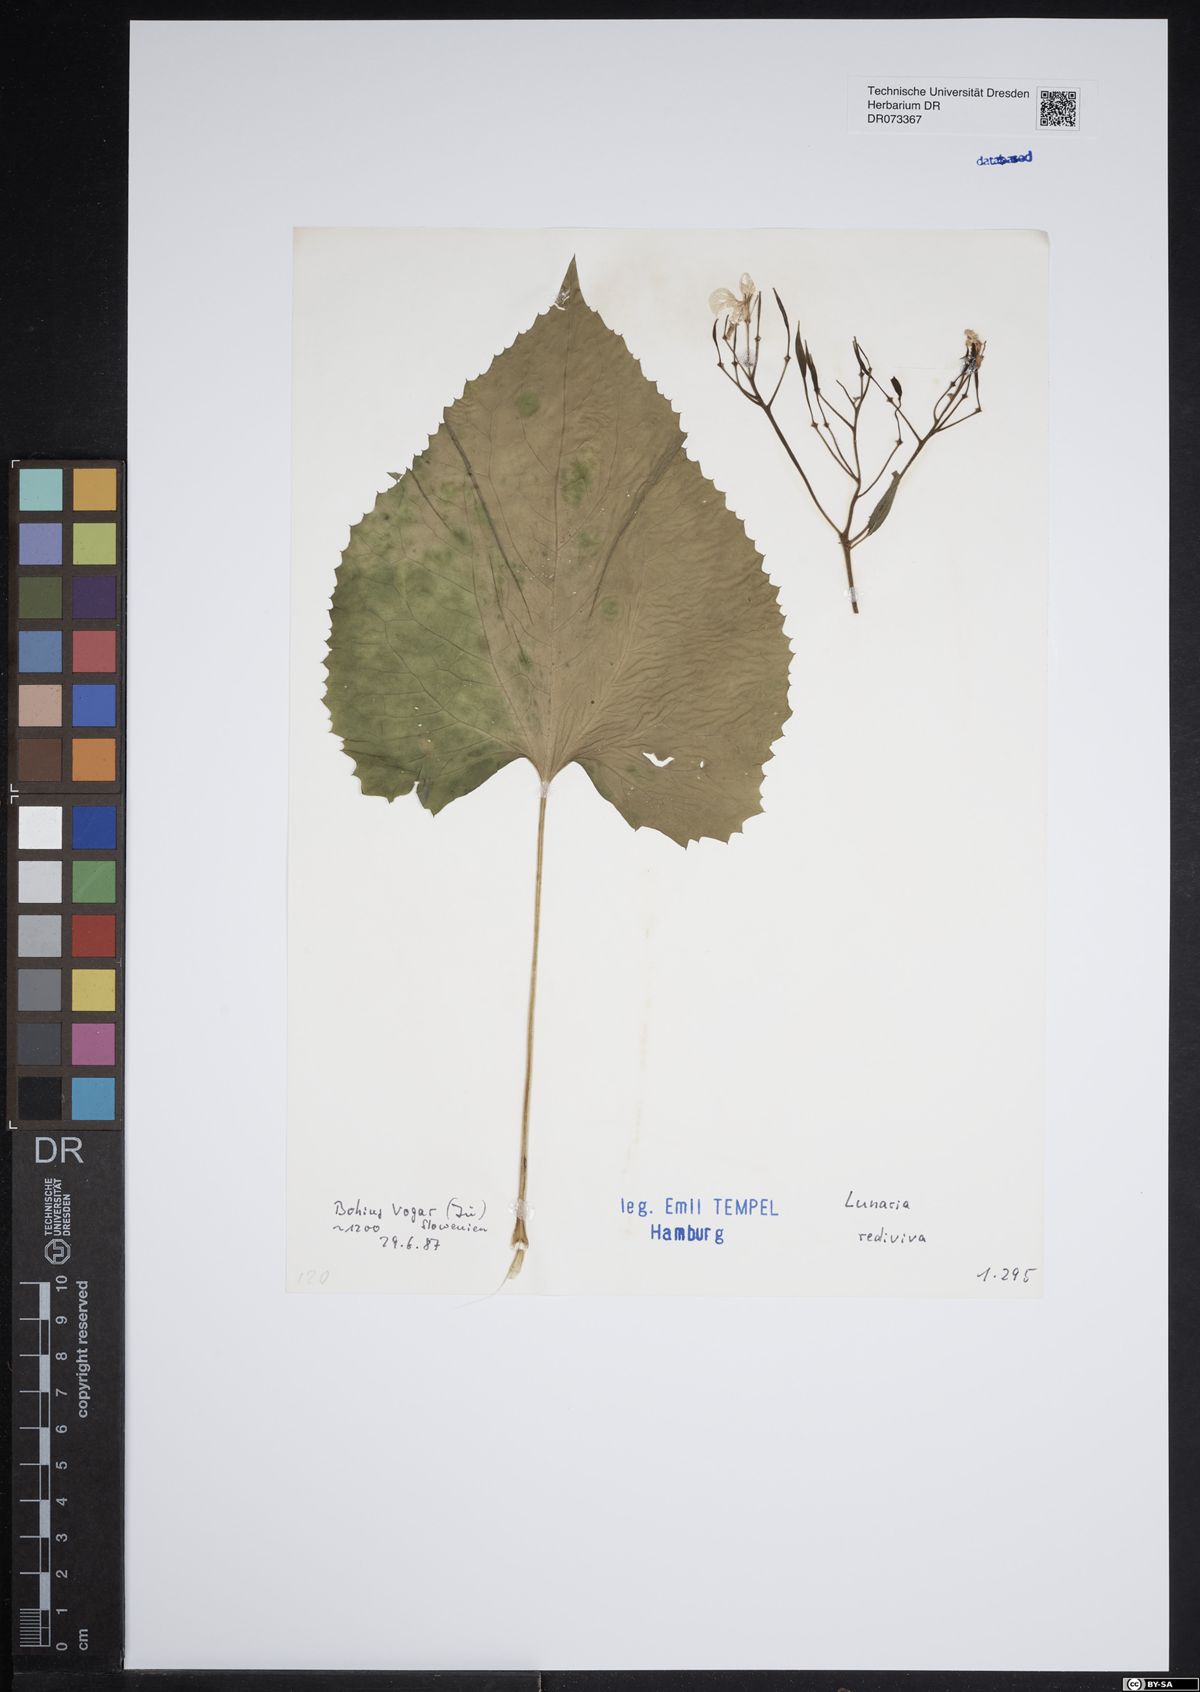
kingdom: Plantae
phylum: Tracheophyta
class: Magnoliopsida
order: Brassicales
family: Brassicaceae
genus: Lunaria
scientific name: Lunaria rediviva
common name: Perennial honesty
